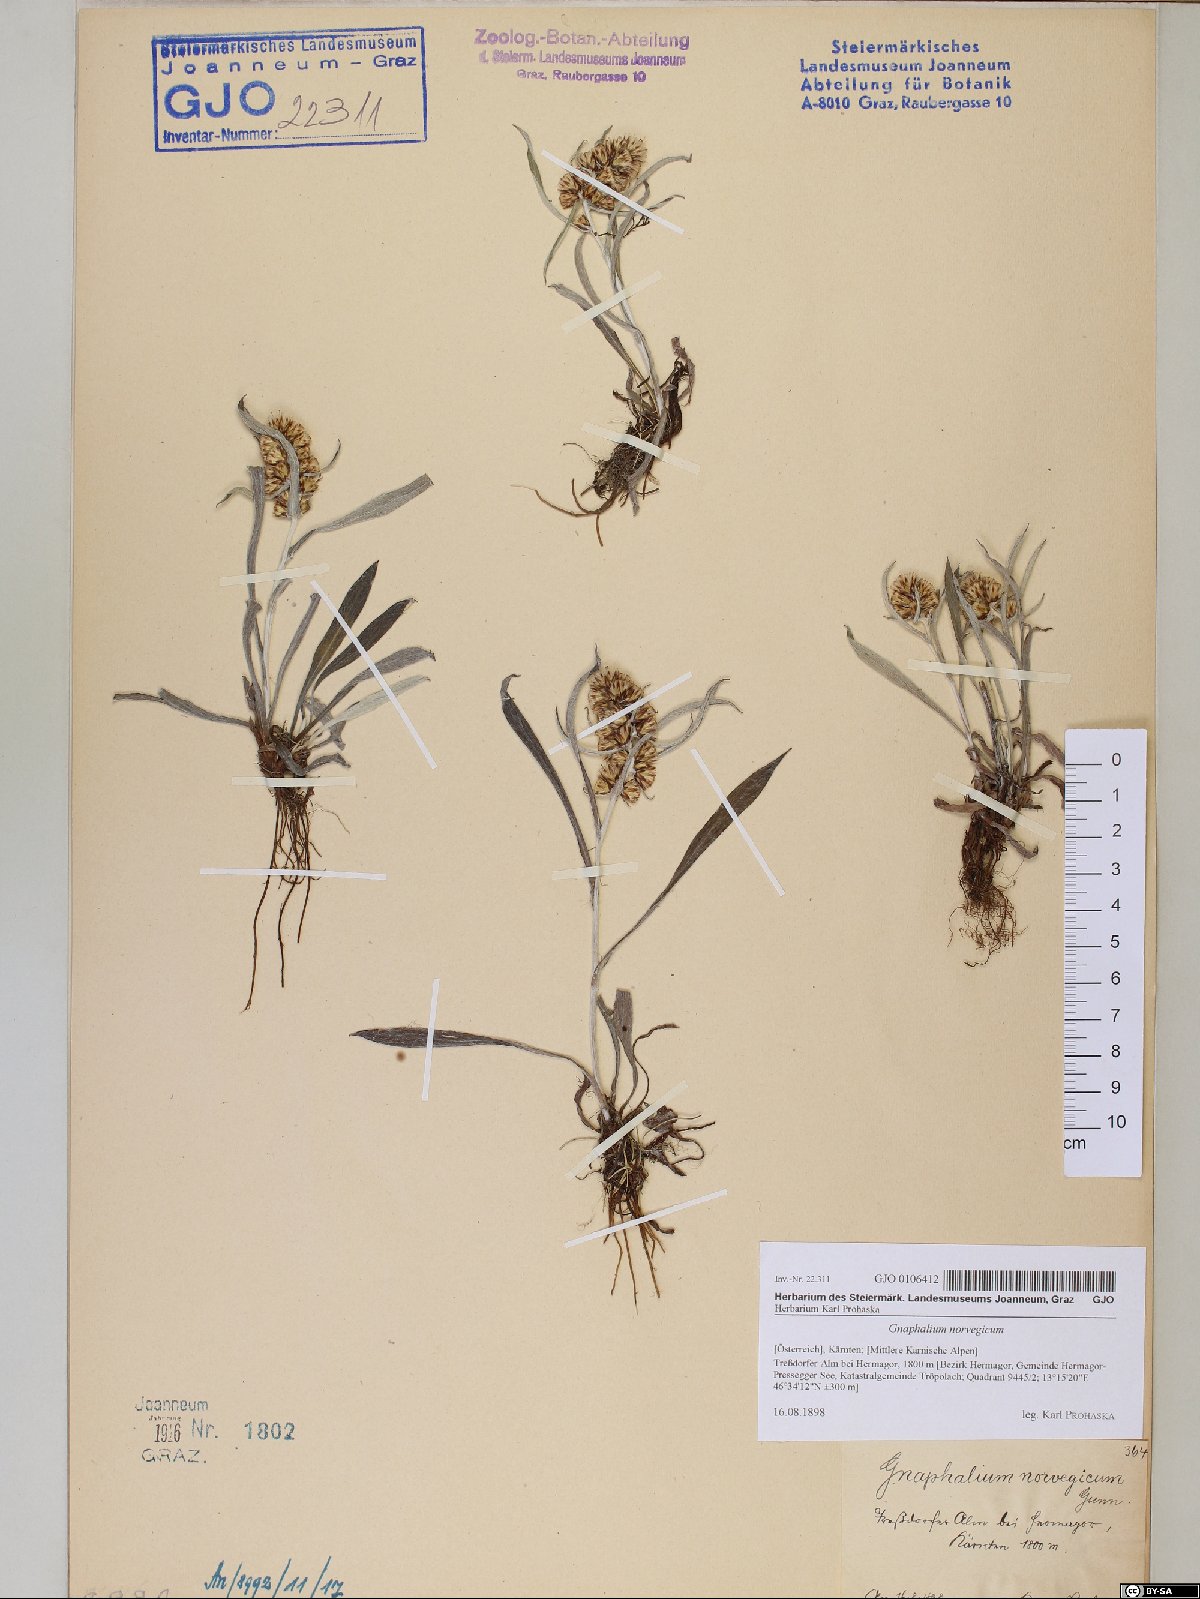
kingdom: Plantae
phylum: Tracheophyta
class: Magnoliopsida
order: Asterales
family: Asteraceae
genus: Omalotheca
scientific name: Omalotheca norvegica
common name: Norwegian arctic-cudweed
